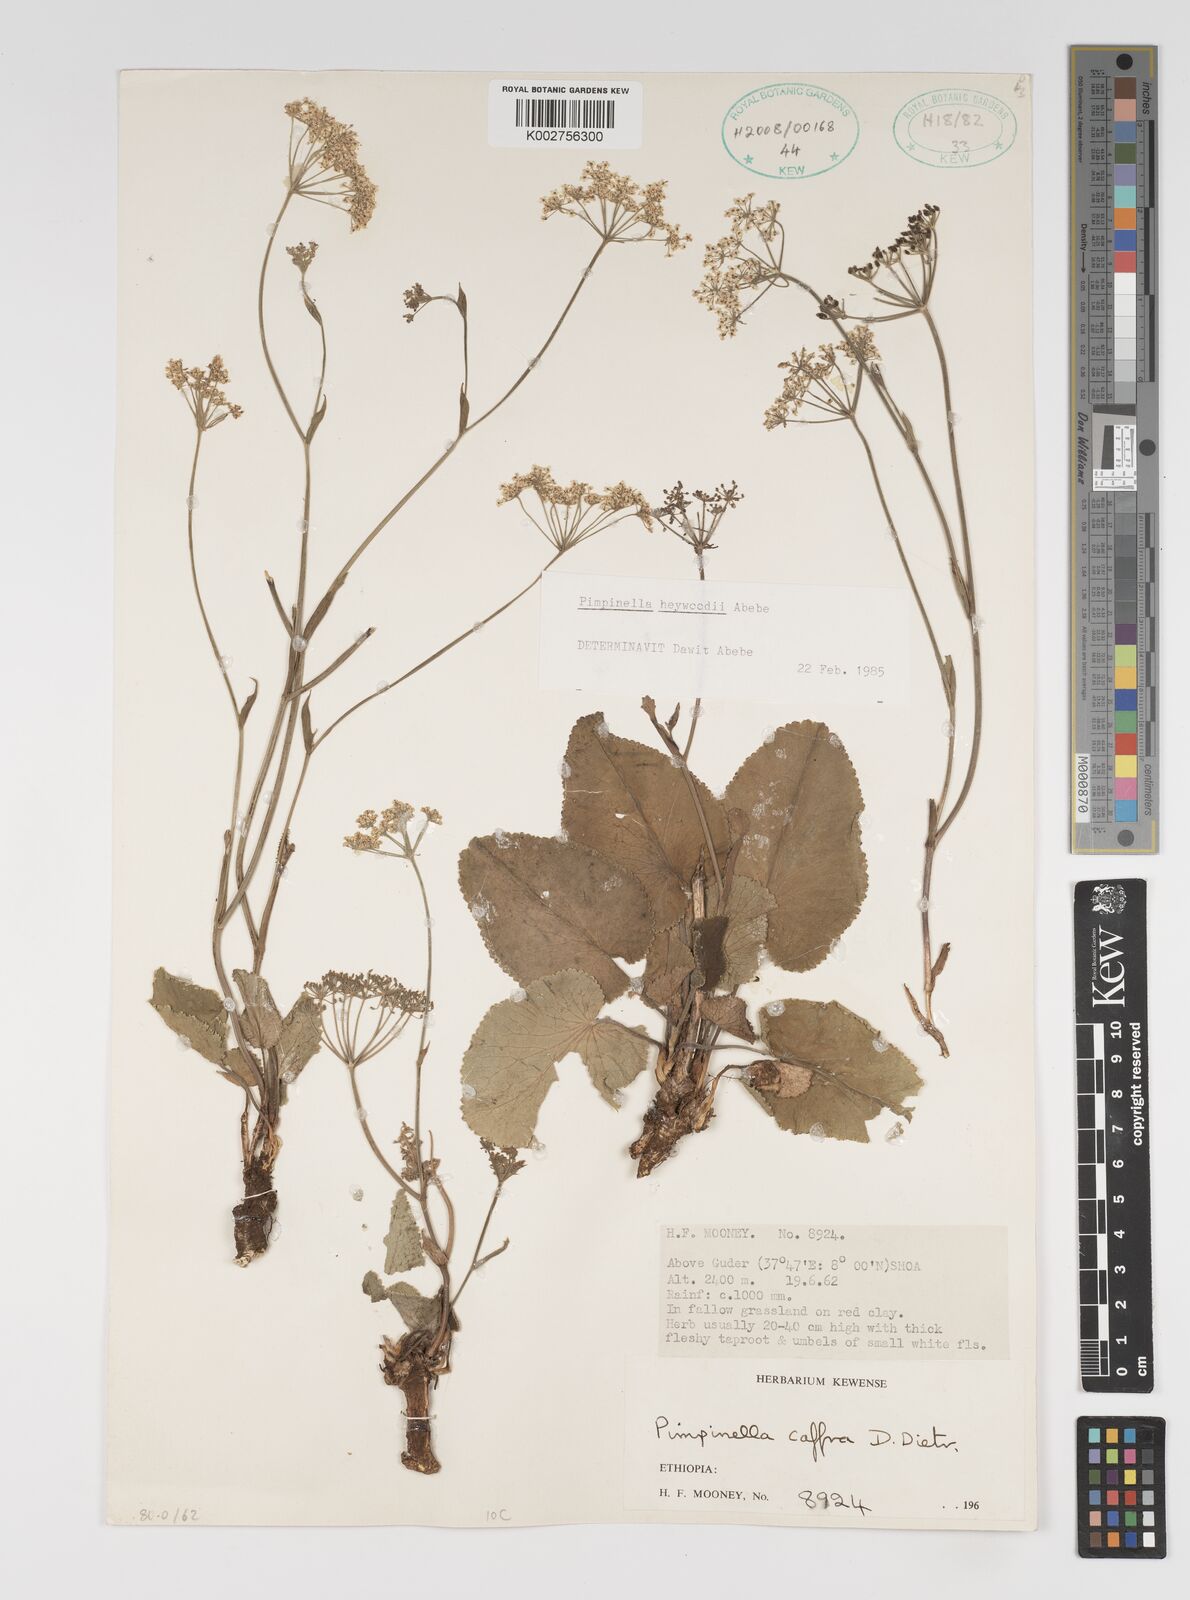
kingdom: Plantae
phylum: Tracheophyta
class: Magnoliopsida
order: Apiales
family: Apiaceae
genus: Pimpinella
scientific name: Pimpinella caffra
